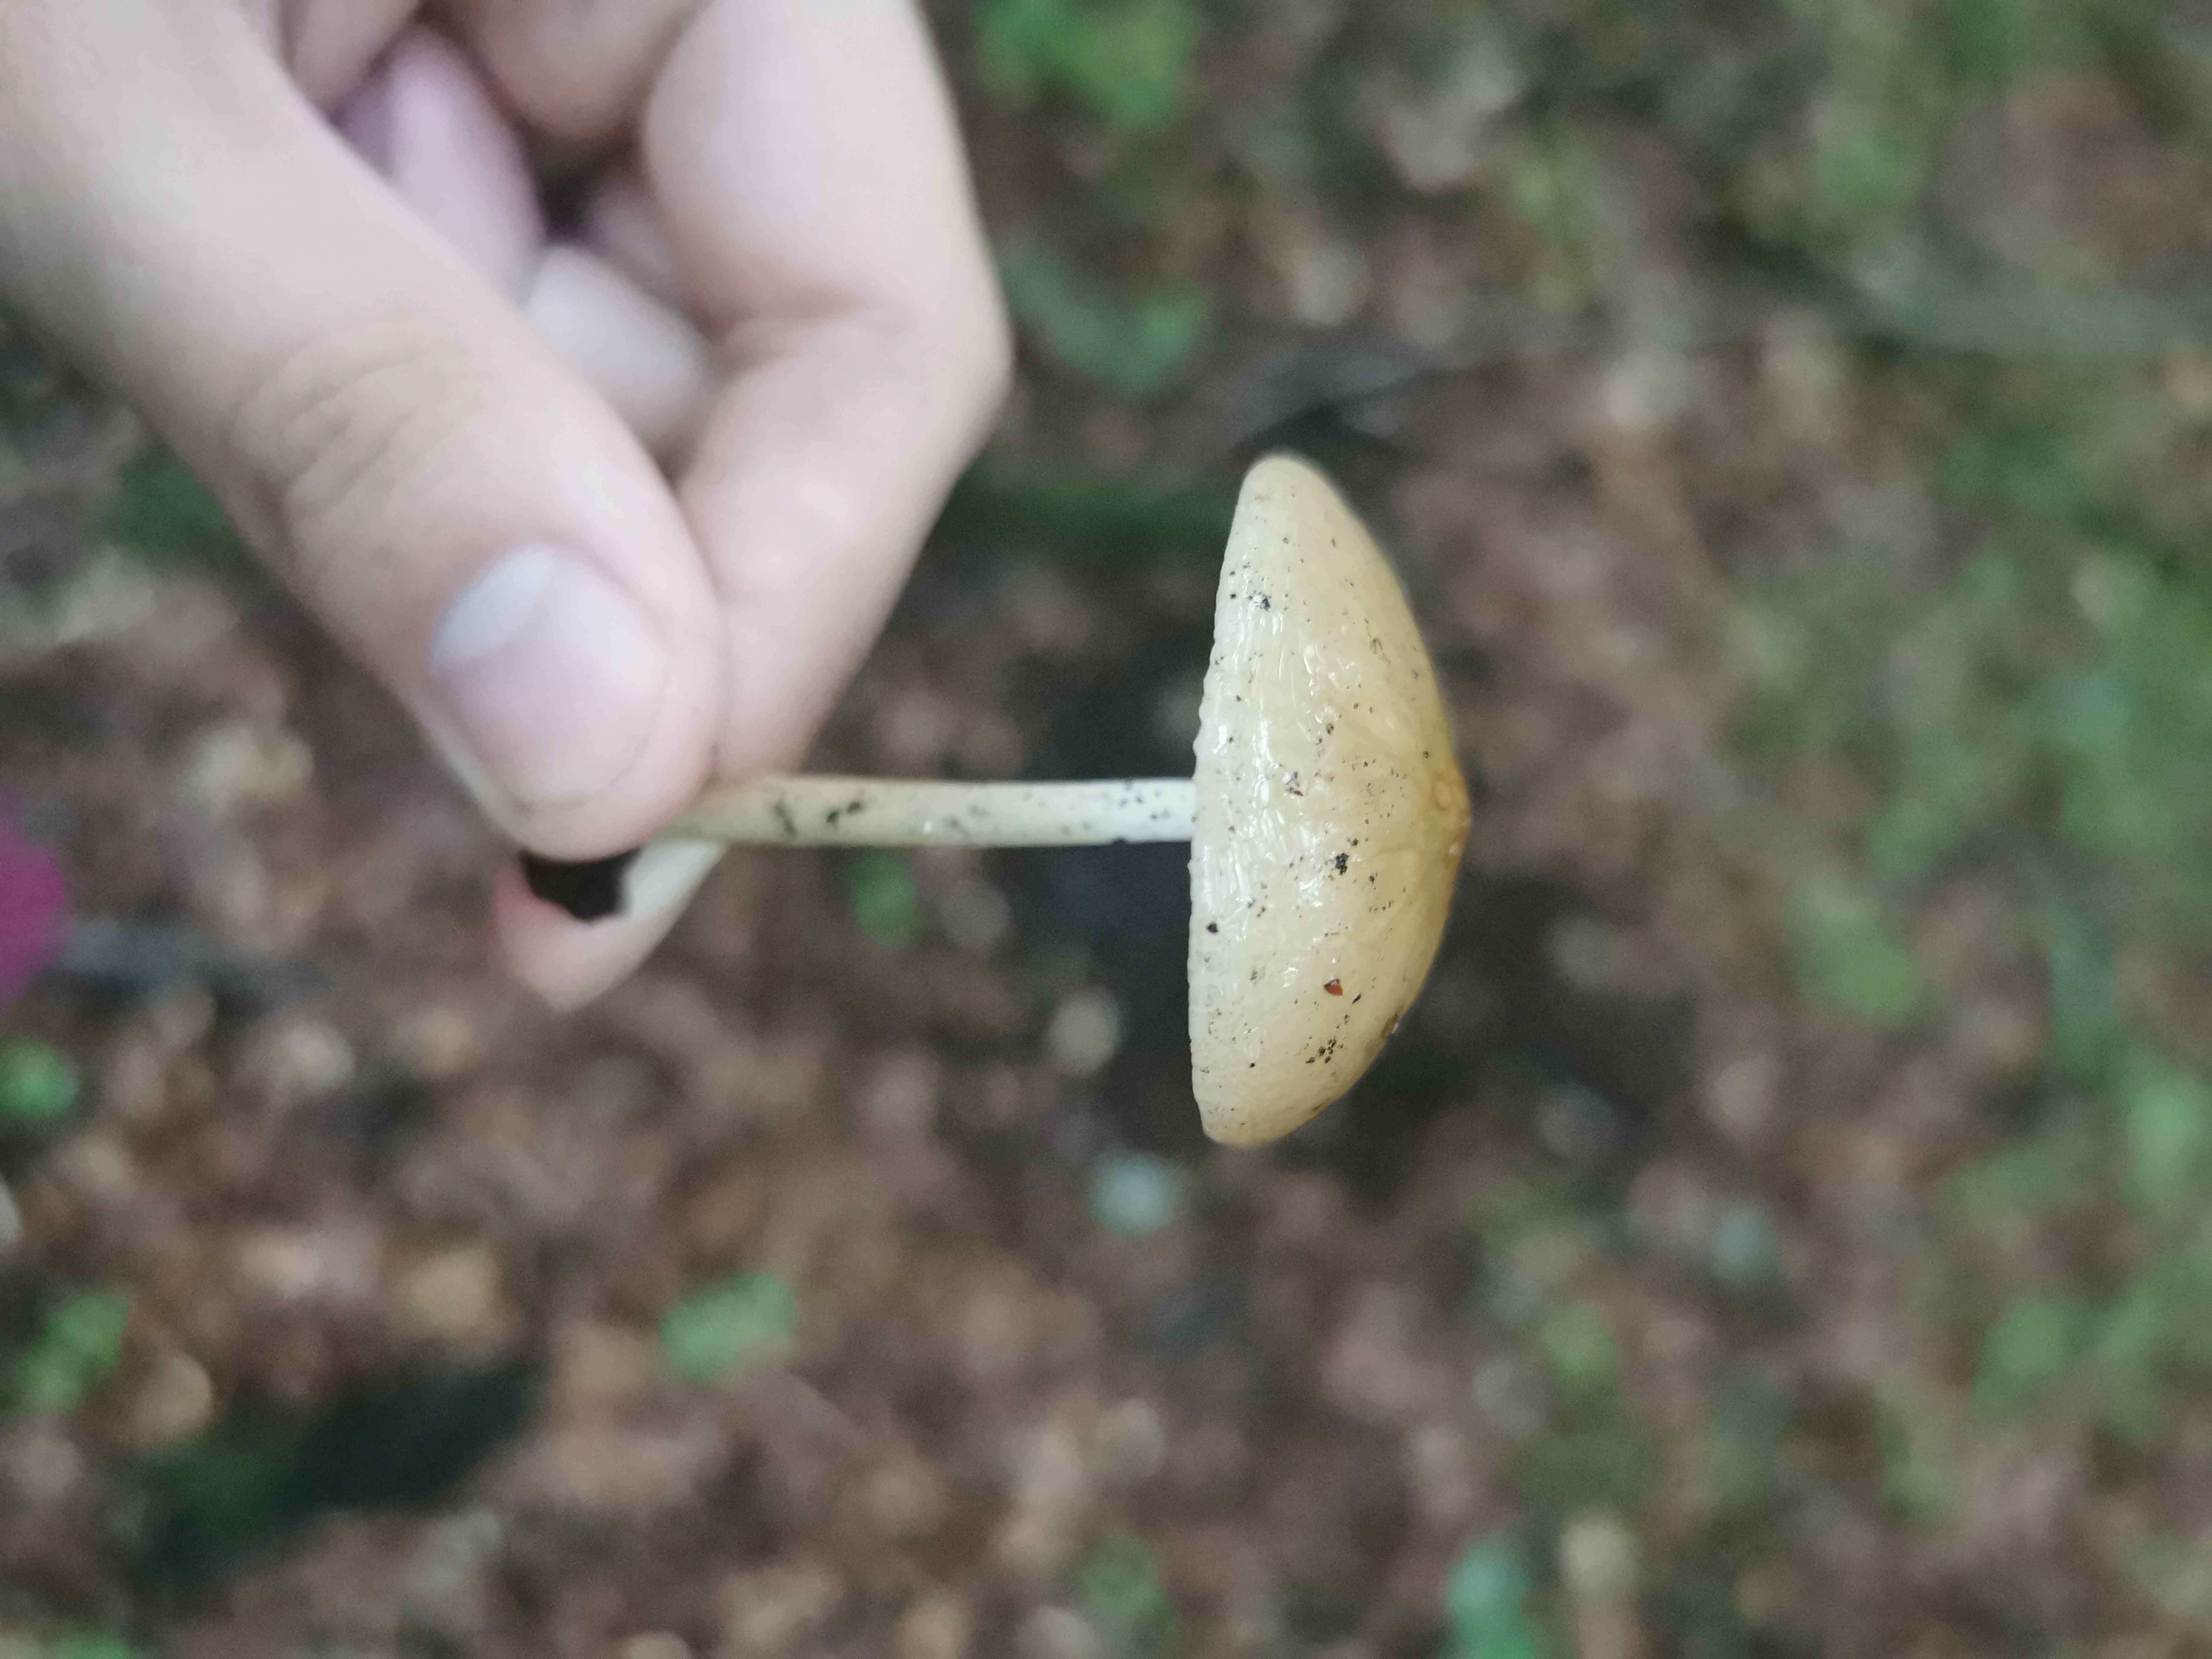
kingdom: Fungi
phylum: Basidiomycota
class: Agaricomycetes
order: Agaricales
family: Physalacriaceae
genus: Hymenopellis
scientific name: Hymenopellis radicata
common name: almindelig pælerodshat
